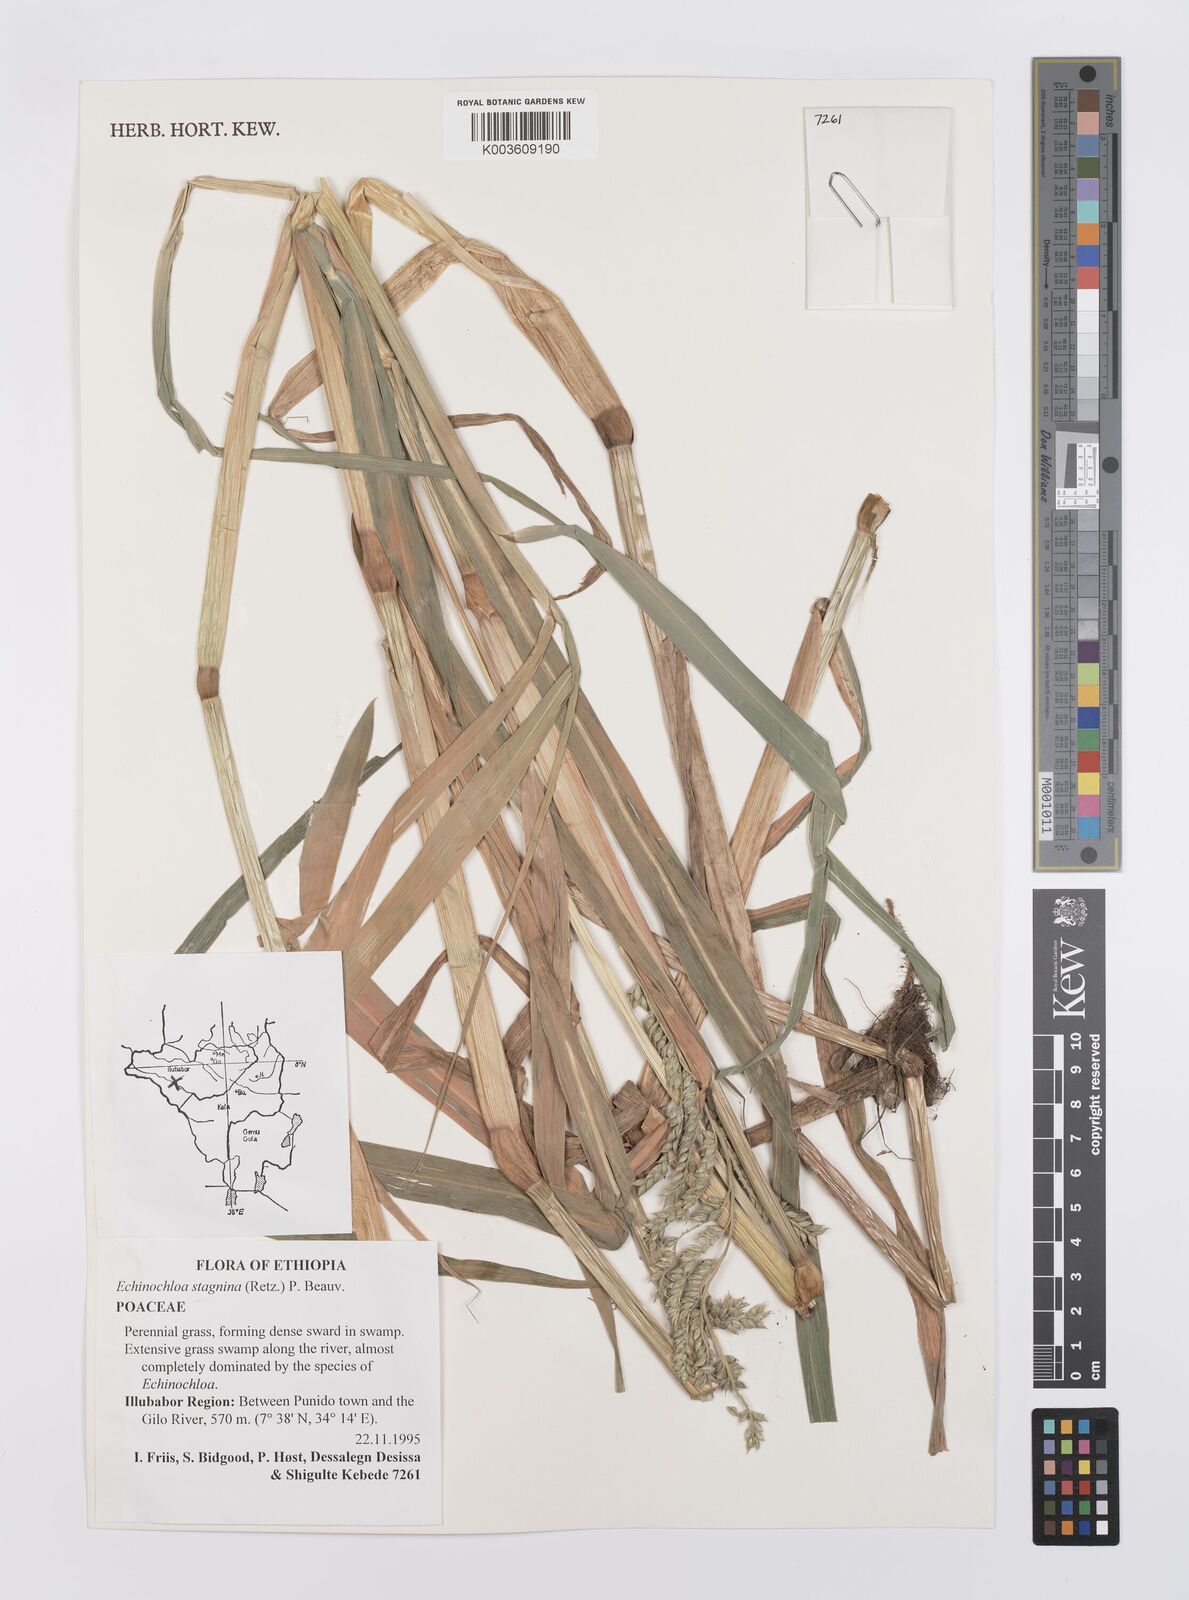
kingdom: Plantae
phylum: Tracheophyta
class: Liliopsida
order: Poales
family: Poaceae
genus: Echinochloa
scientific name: Echinochloa stagnina
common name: Burgu grass
